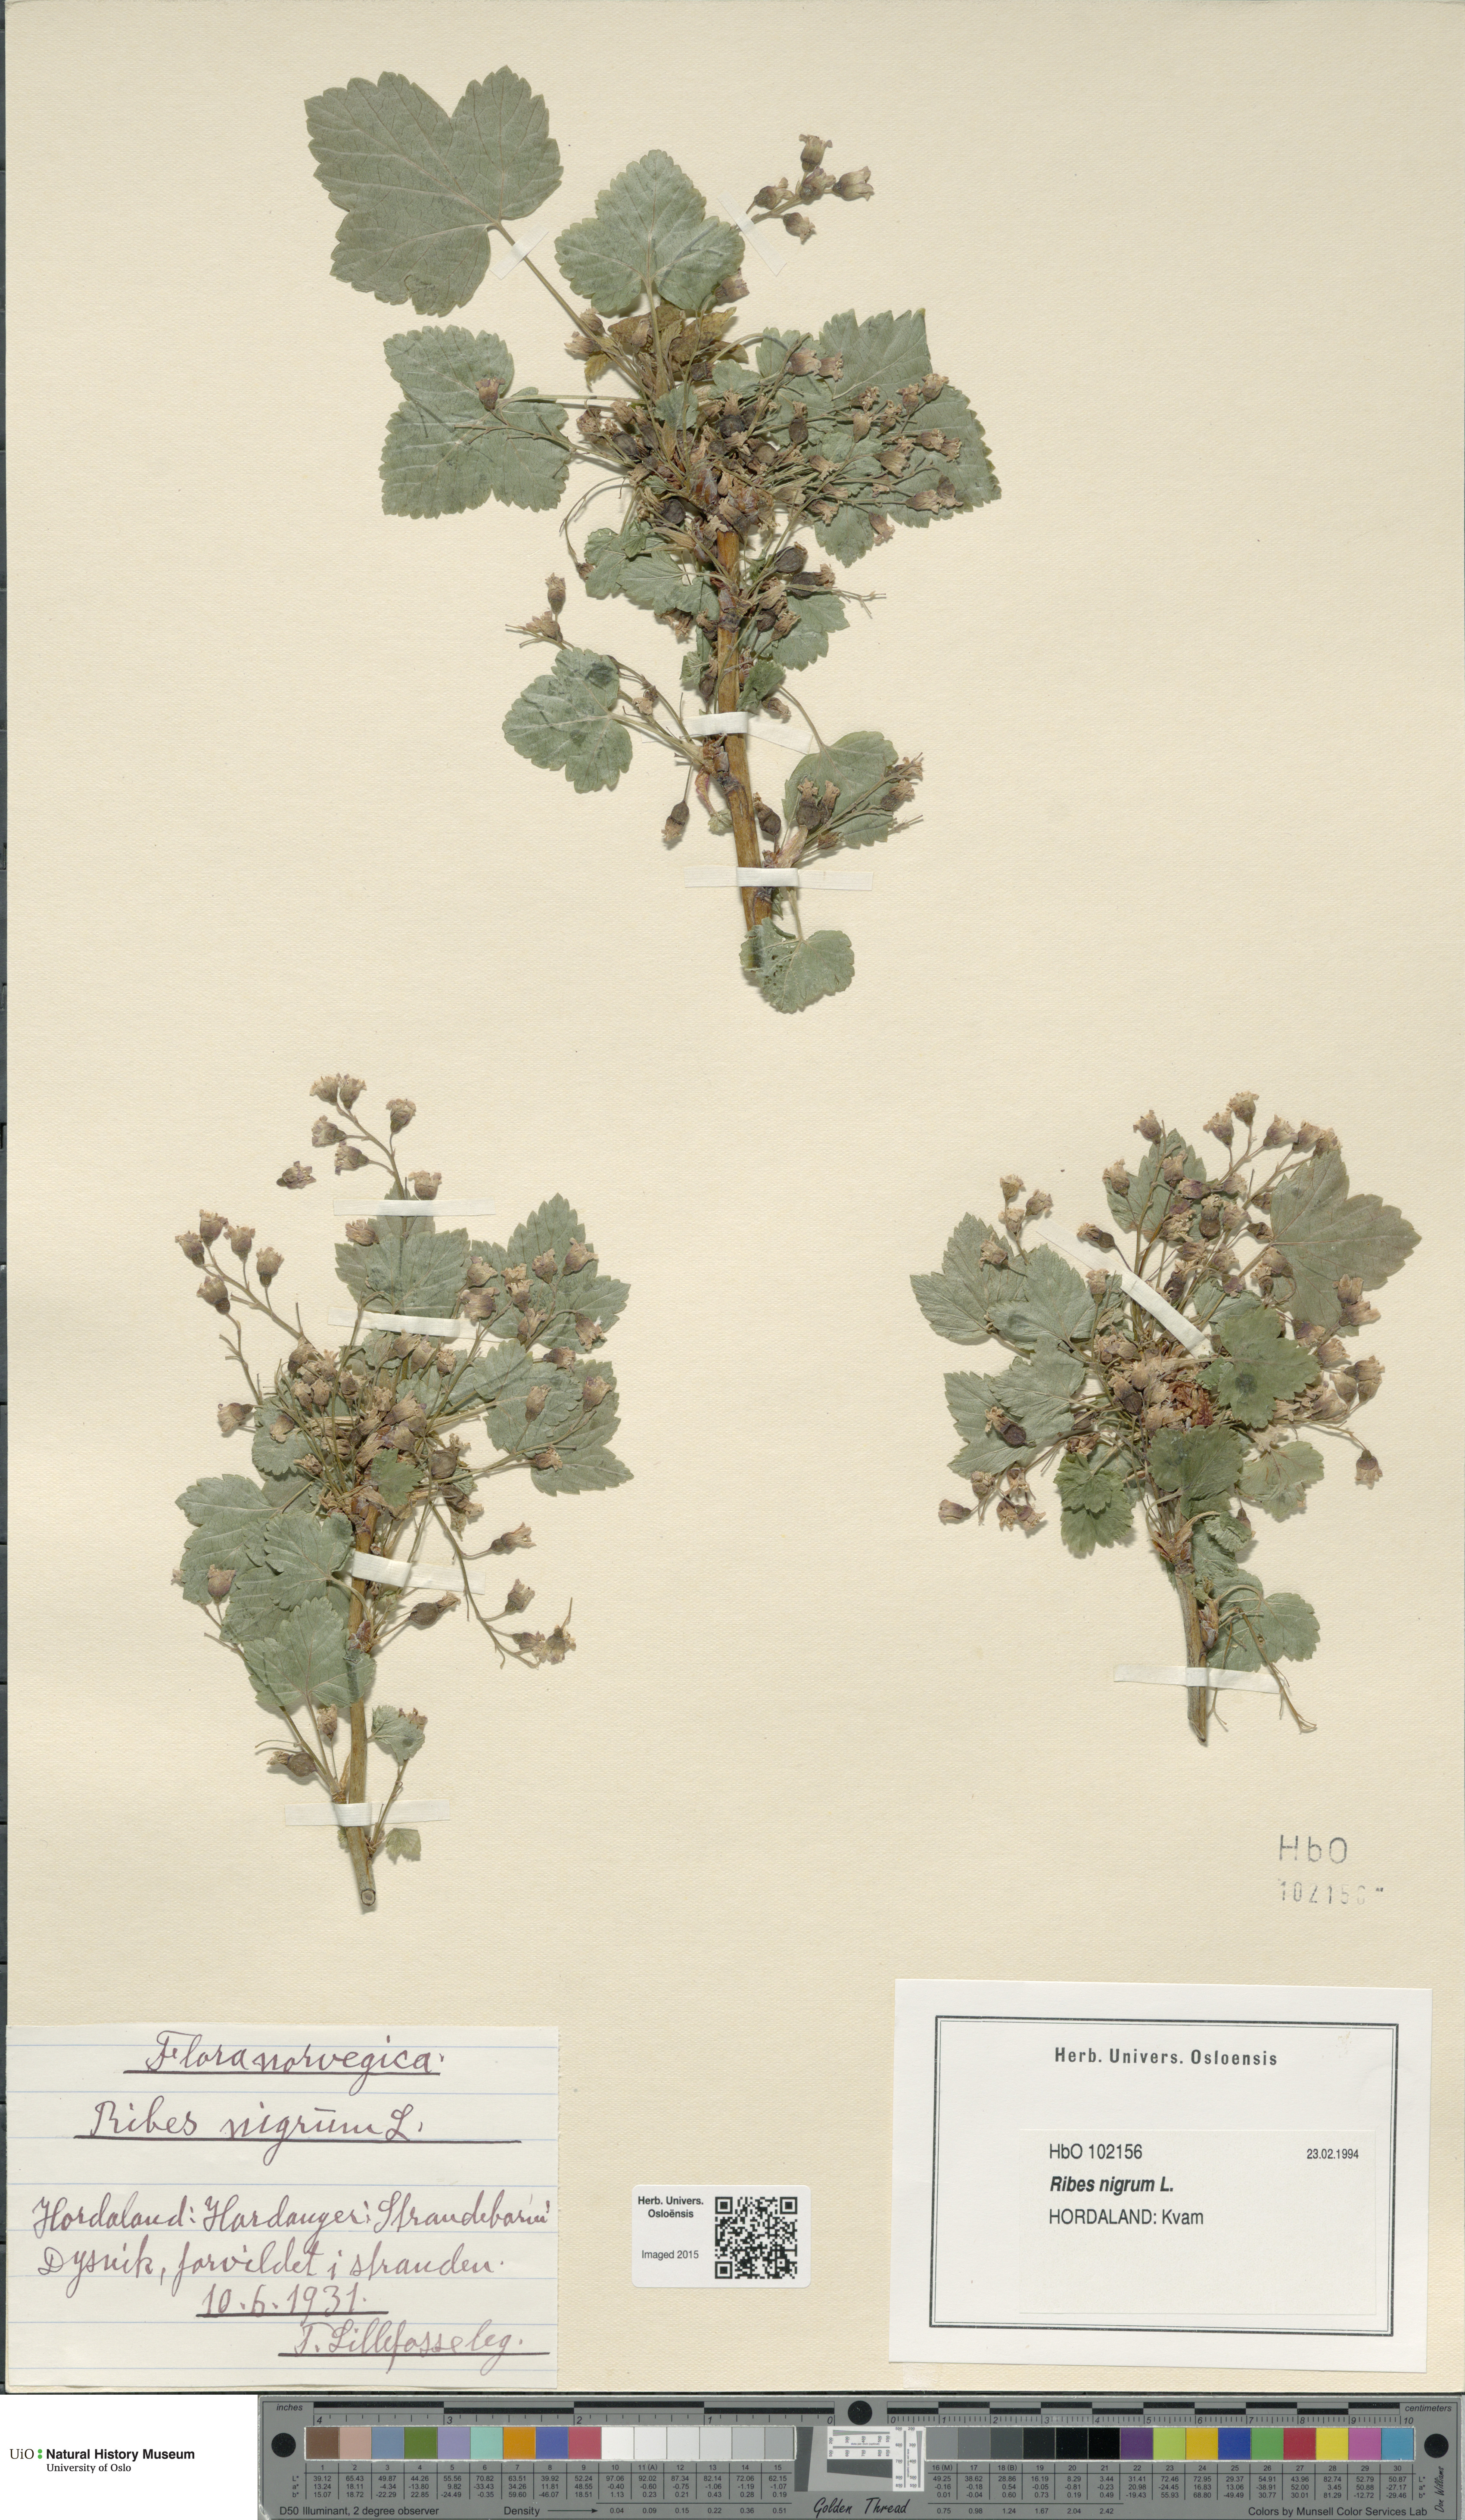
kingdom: Plantae
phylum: Tracheophyta
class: Magnoliopsida
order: Saxifragales
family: Grossulariaceae
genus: Ribes
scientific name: Ribes nigrum
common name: Black currant
